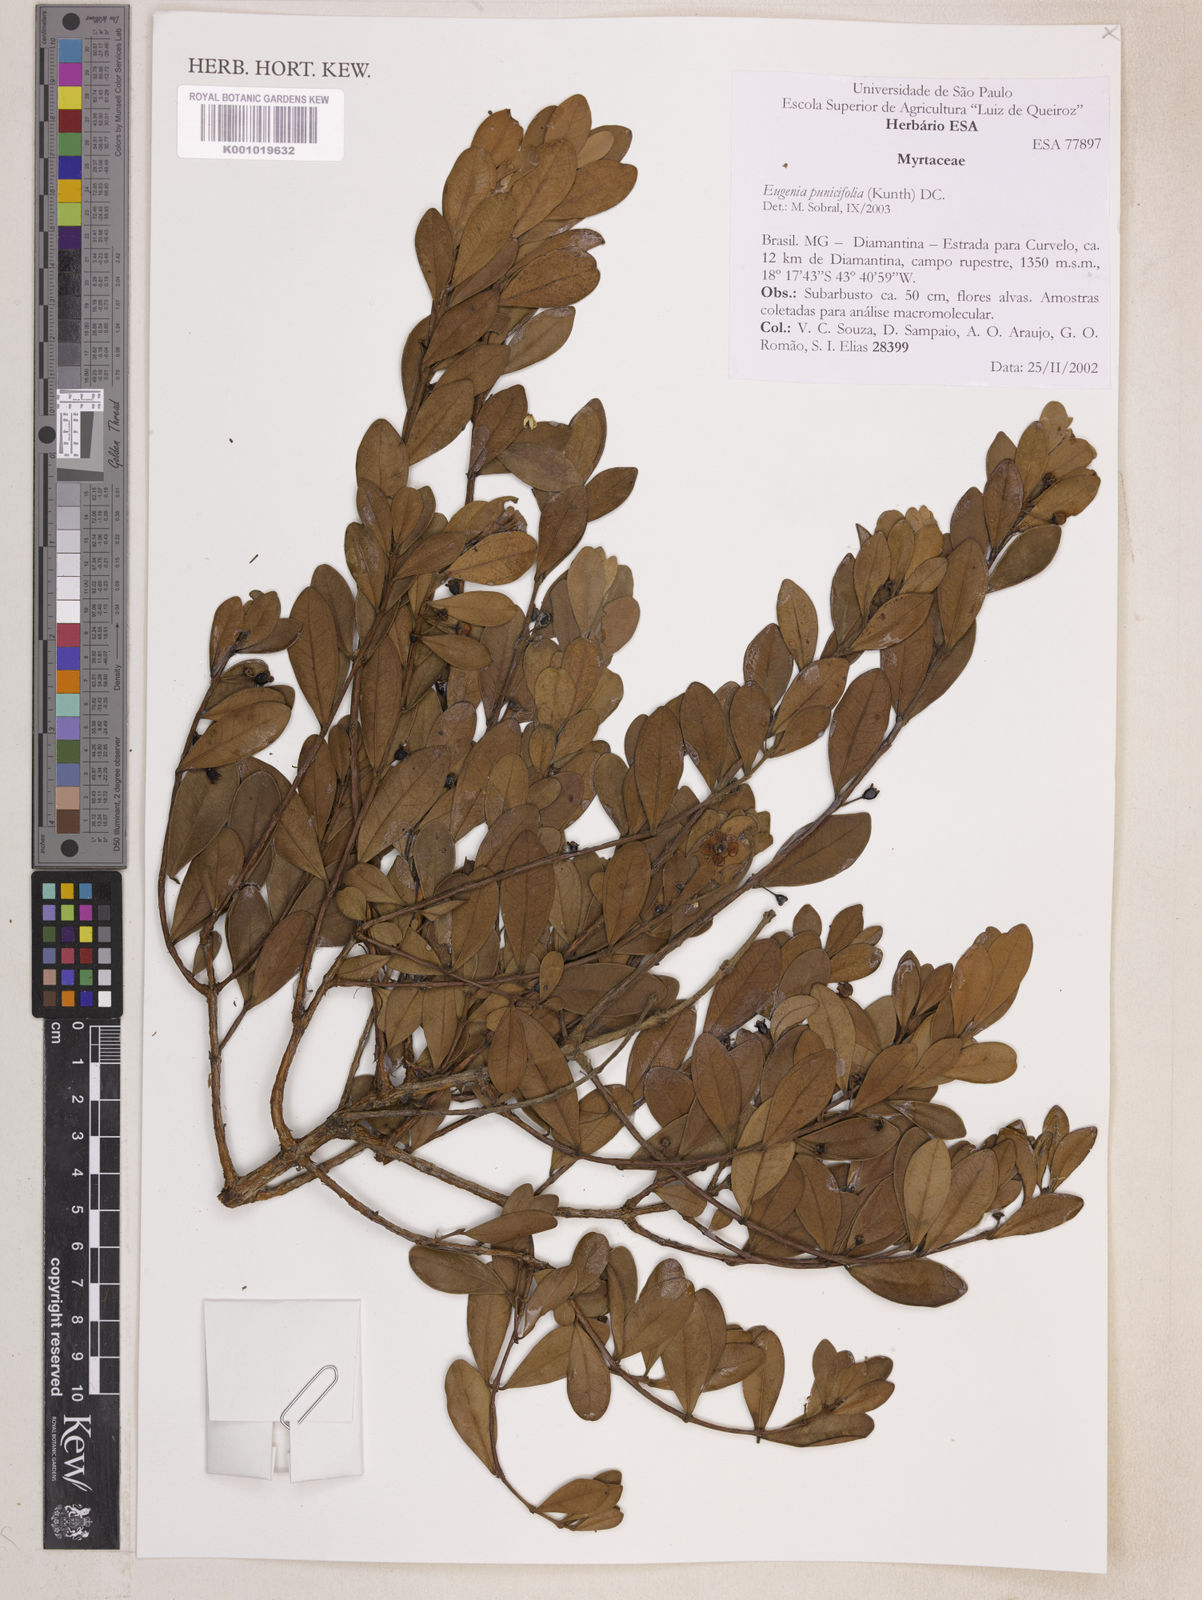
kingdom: Plantae
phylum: Tracheophyta
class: Magnoliopsida
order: Myrtales
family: Myrtaceae
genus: Eugenia
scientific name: Eugenia punicifolia
